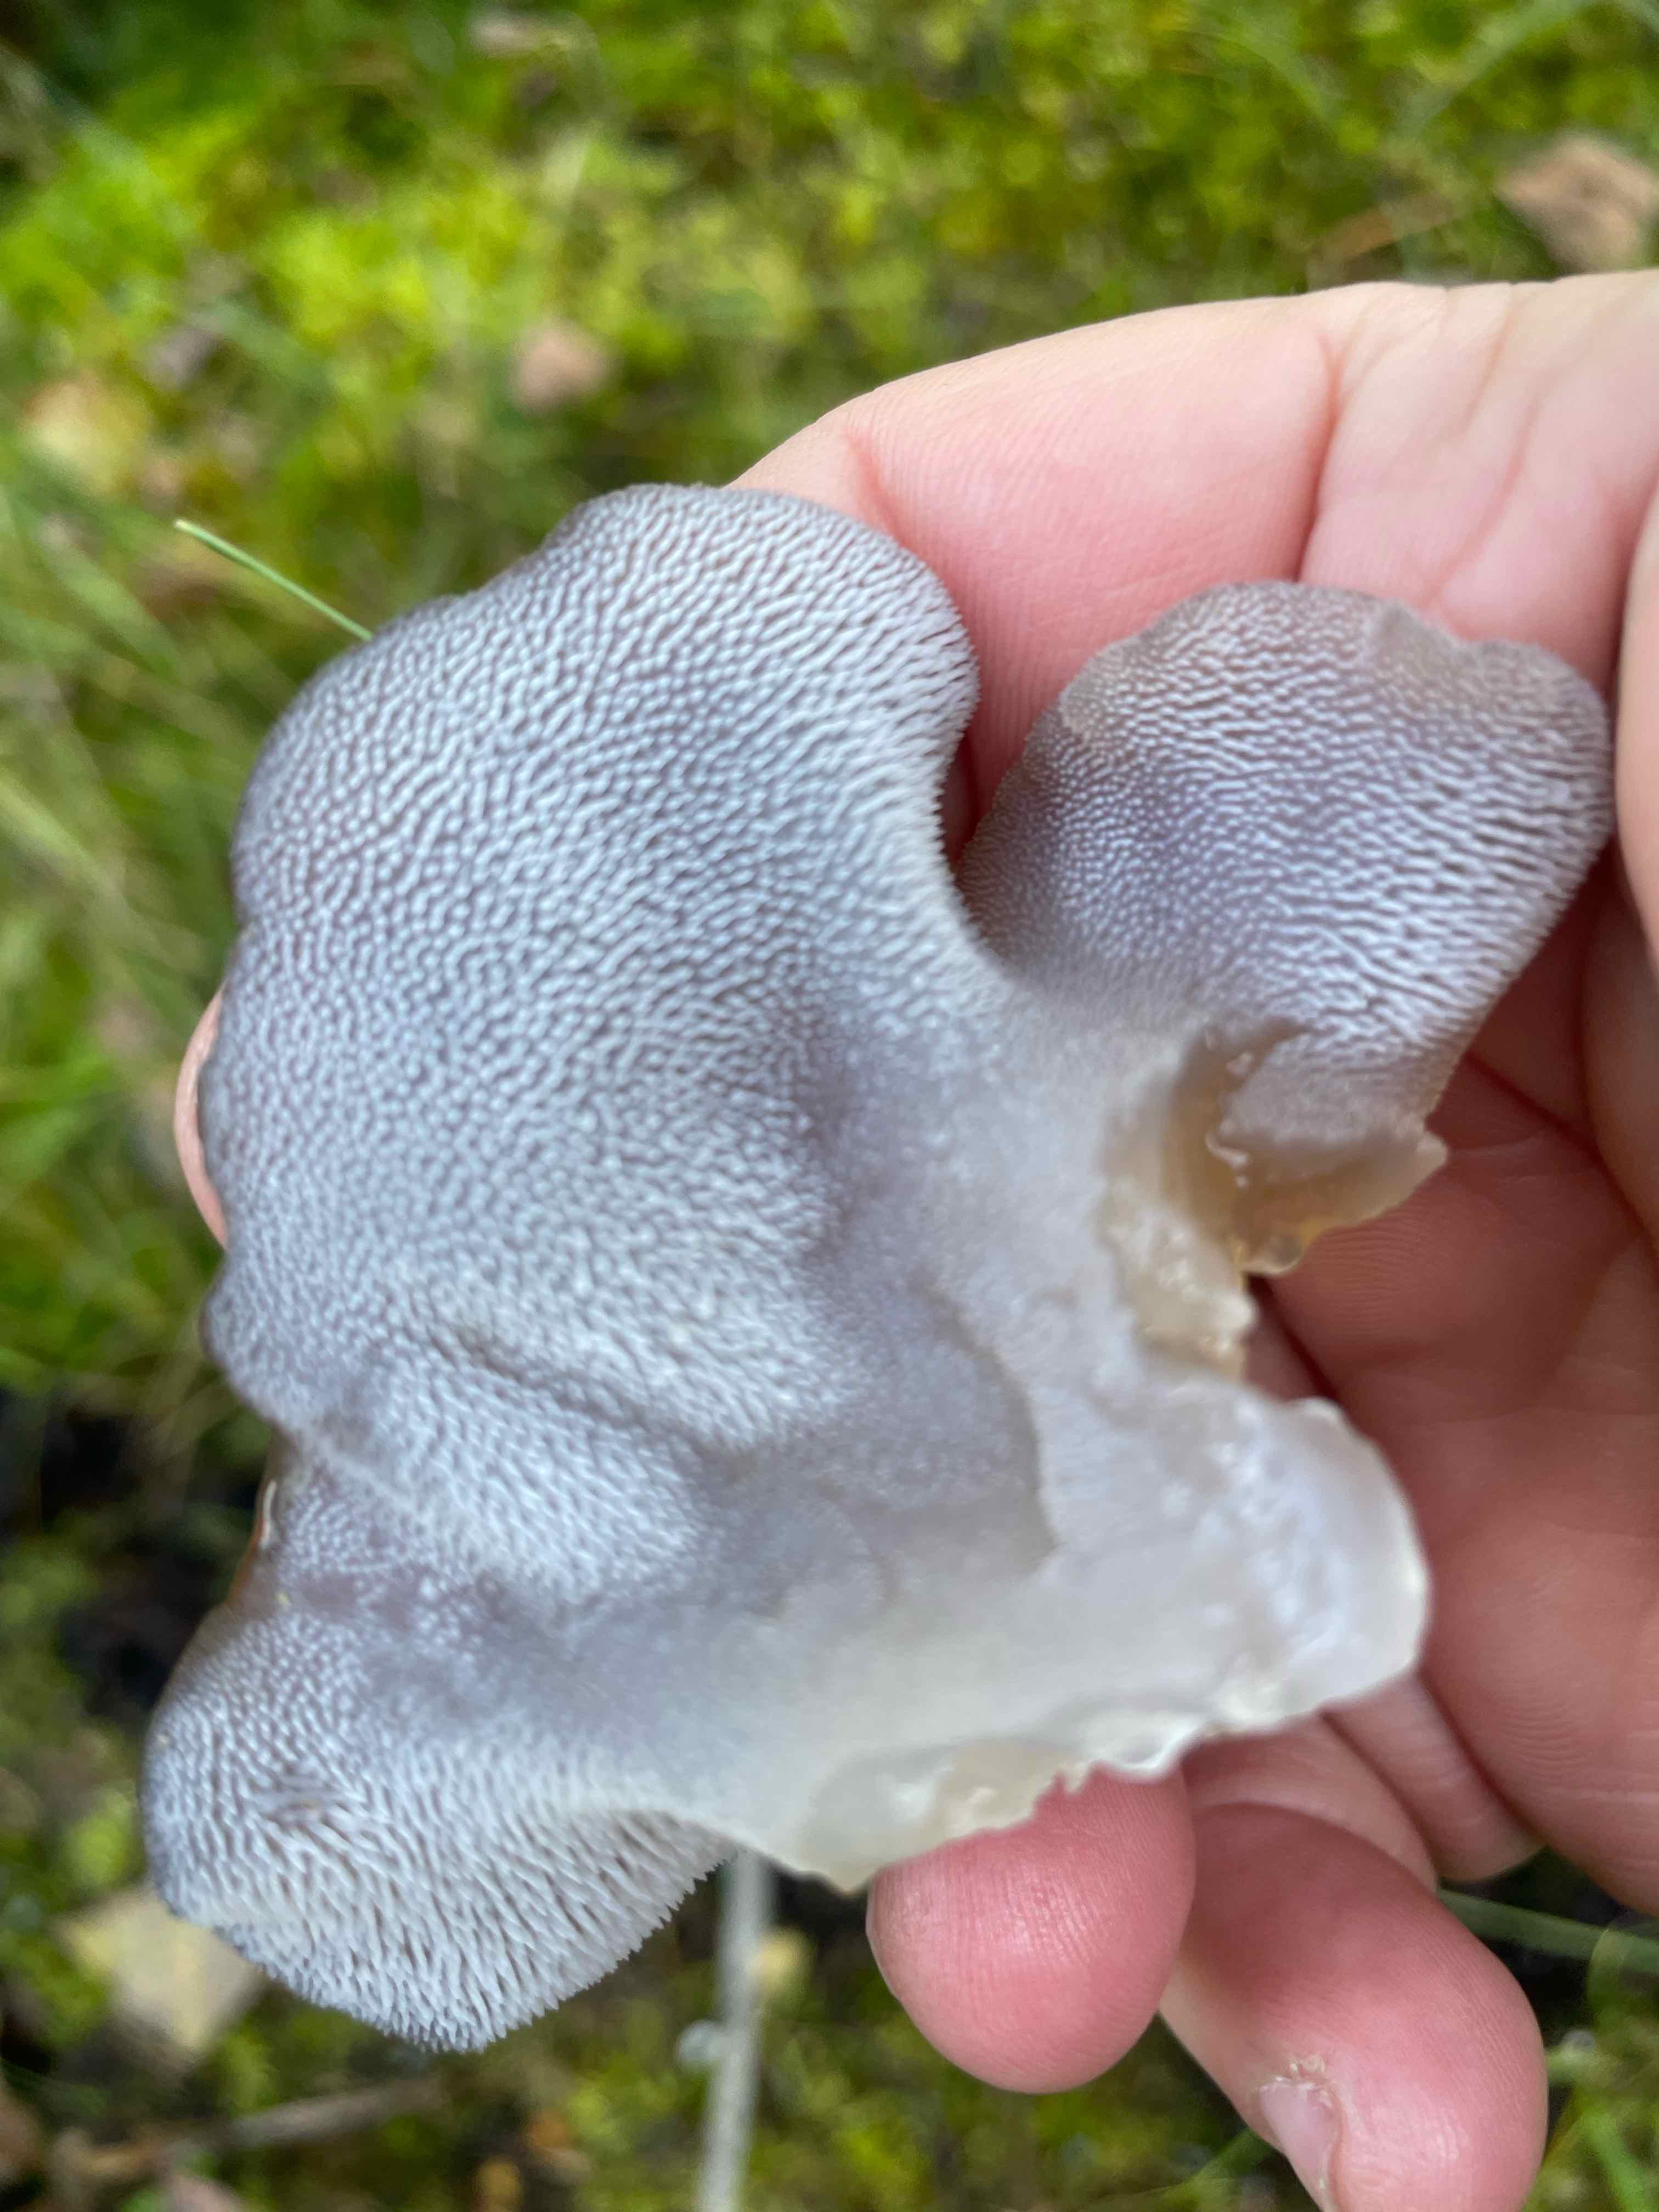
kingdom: Fungi
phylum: Basidiomycota
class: Agaricomycetes
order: Auriculariales
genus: Pseudohydnum
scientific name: Pseudohydnum gelatinosum
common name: bævretand
